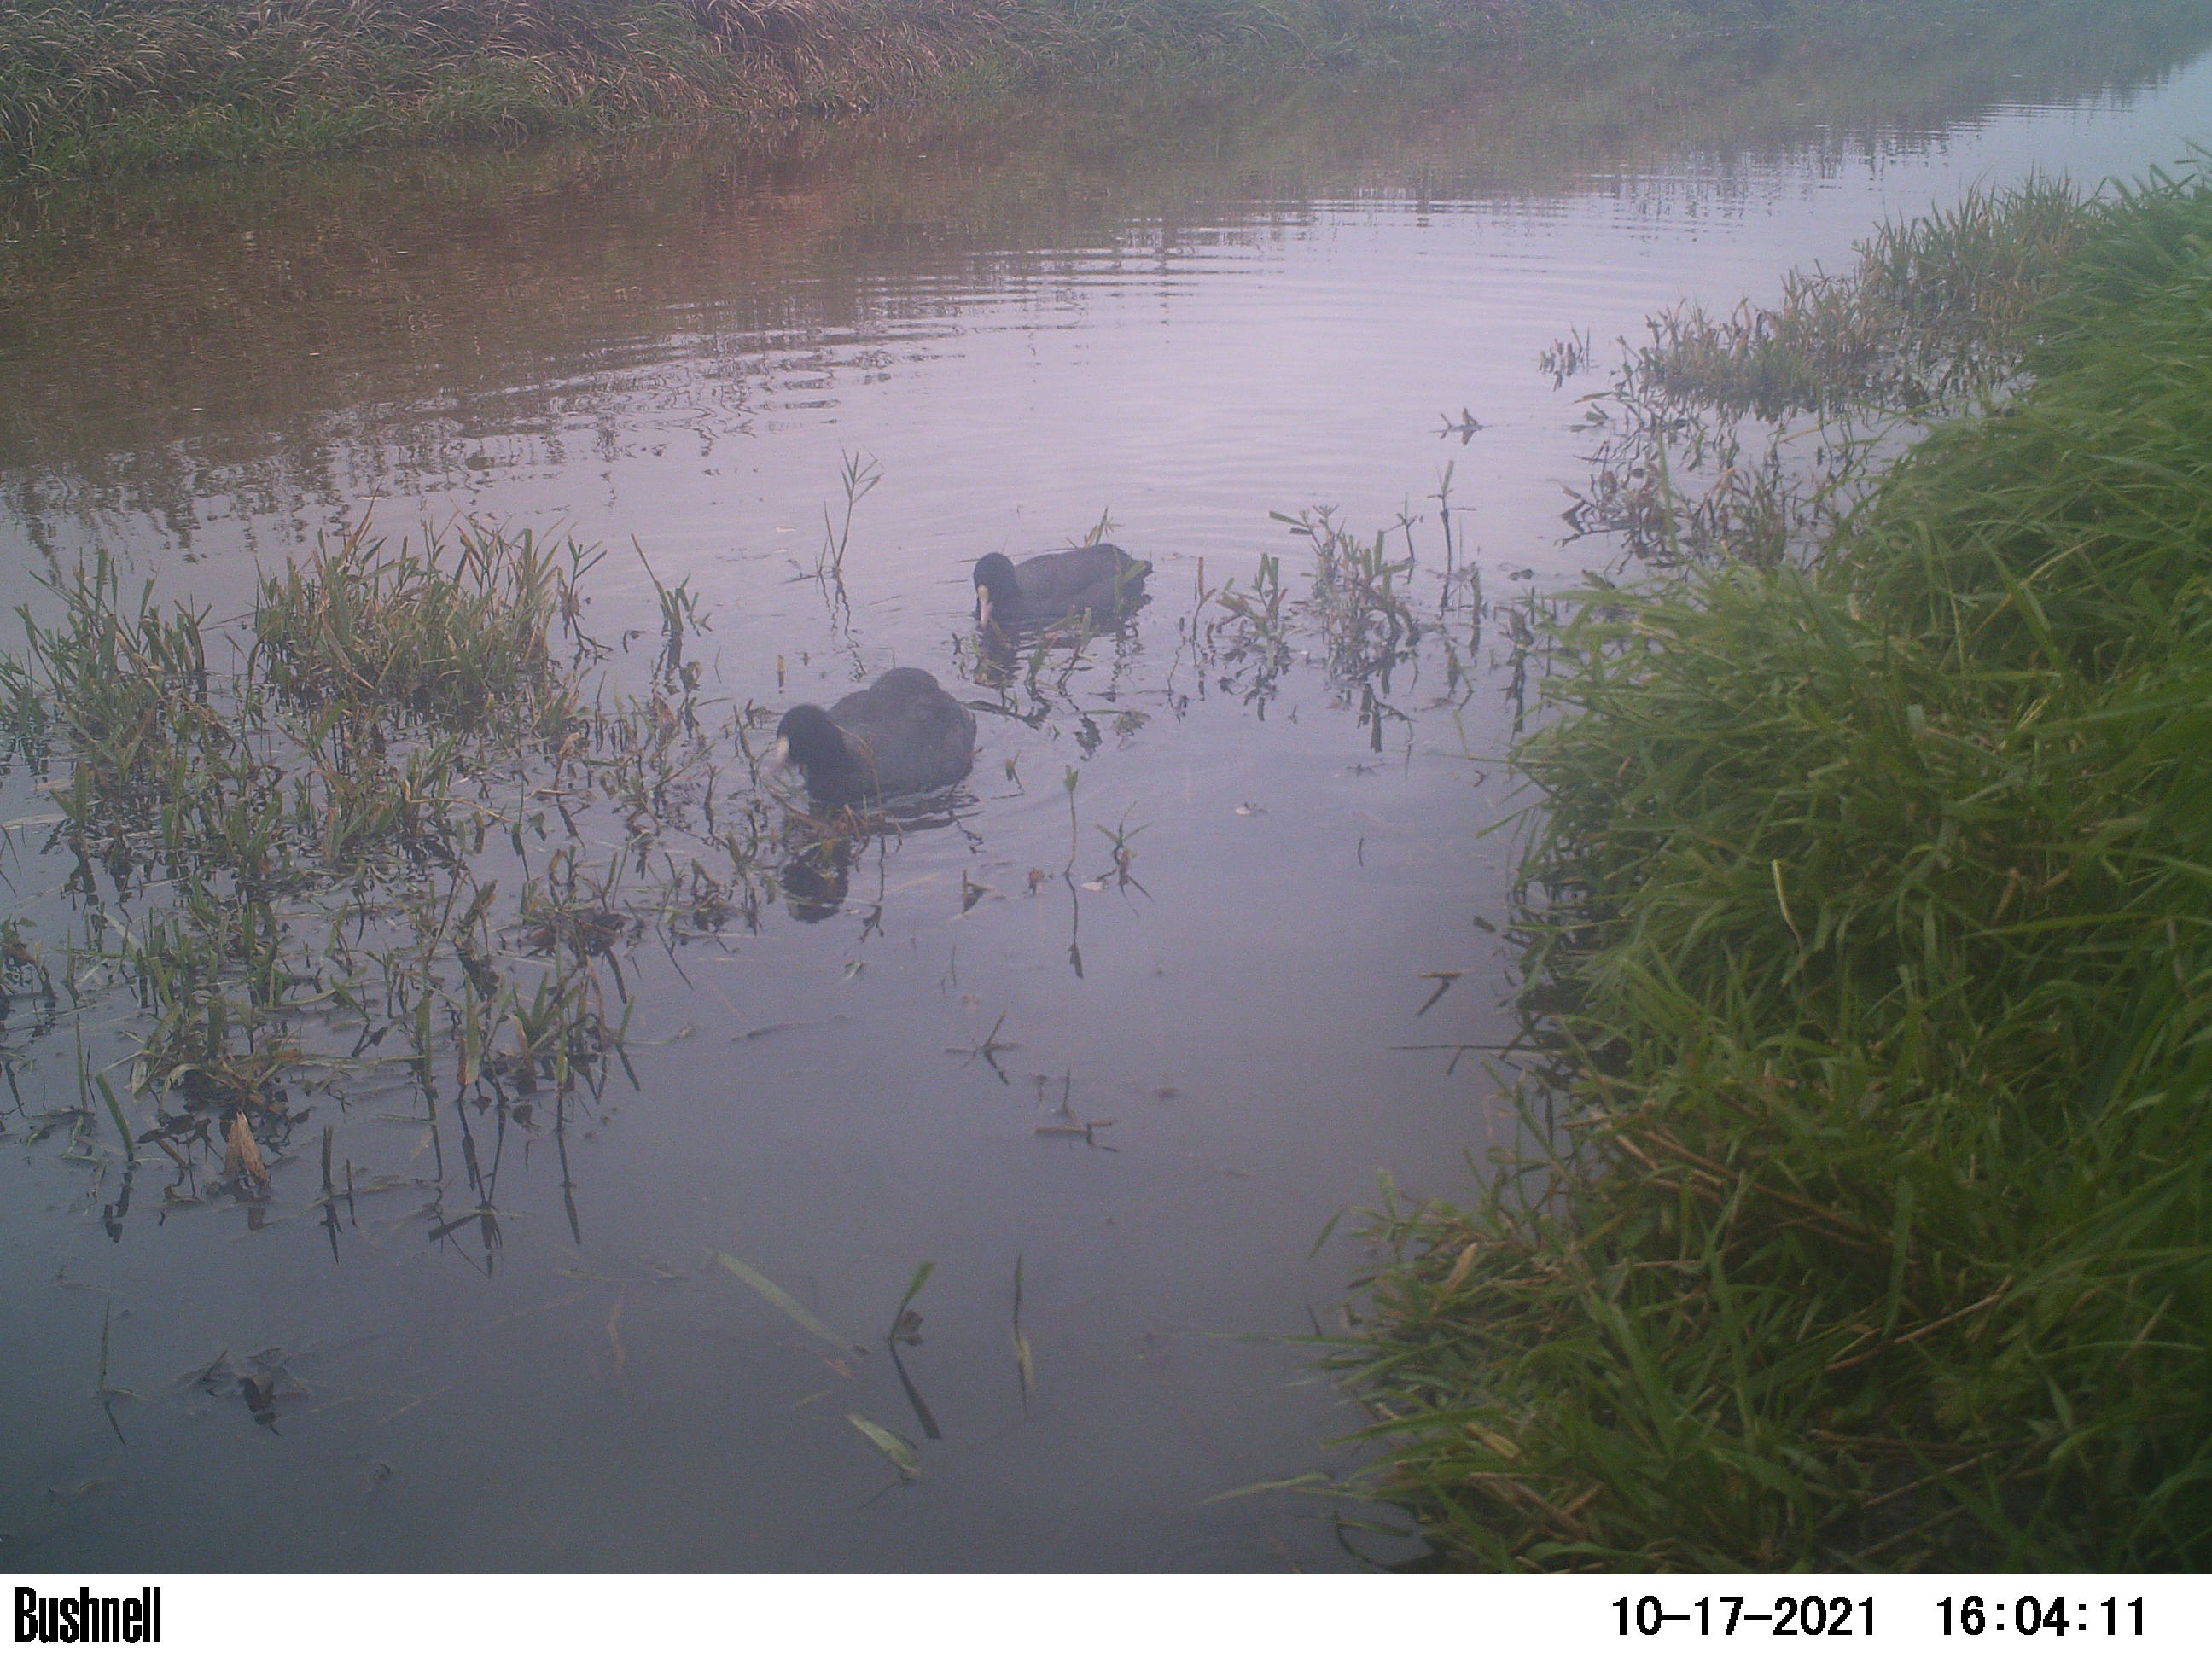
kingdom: Animalia
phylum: Chordata
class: Aves
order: Gruiformes
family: Rallidae
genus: Fulica
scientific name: Fulica atra
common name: Eurasian coot
